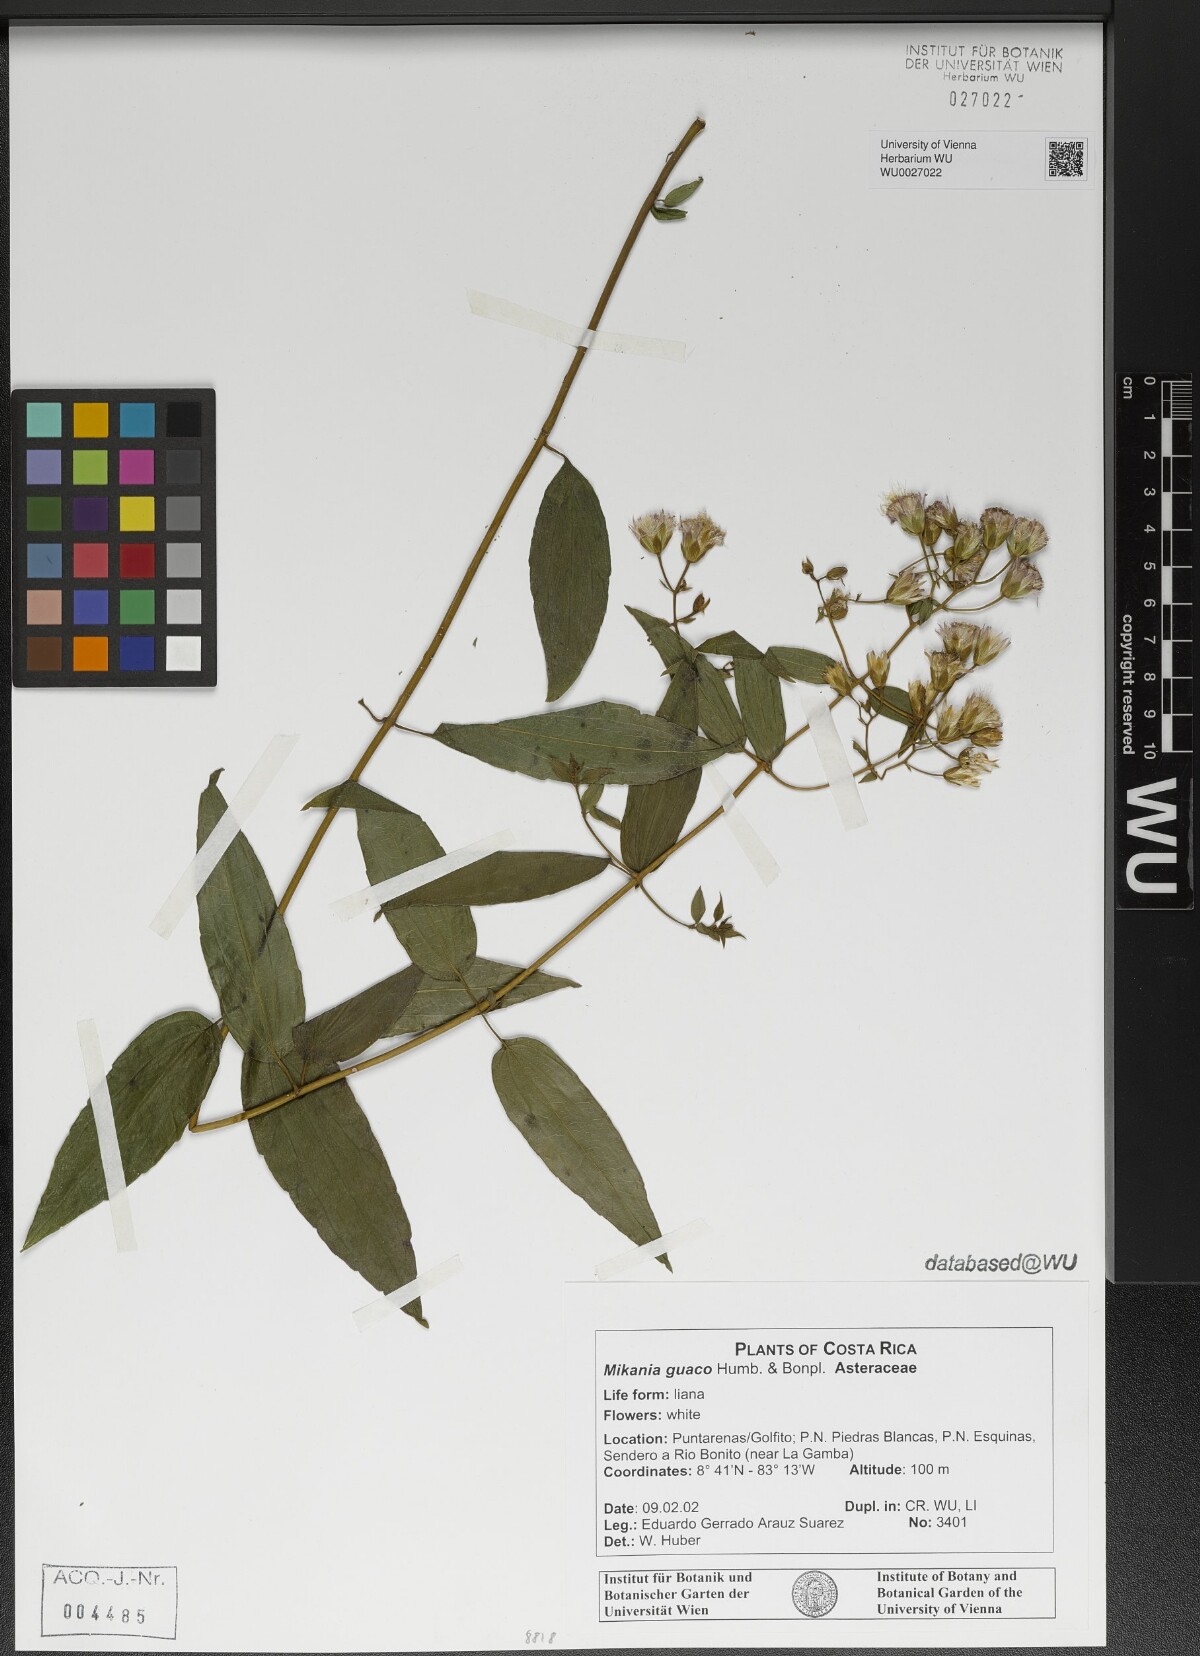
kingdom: Plantae
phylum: Tracheophyta
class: Magnoliopsida
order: Asterales
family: Asteraceae
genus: Mikania
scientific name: Mikania guaco
